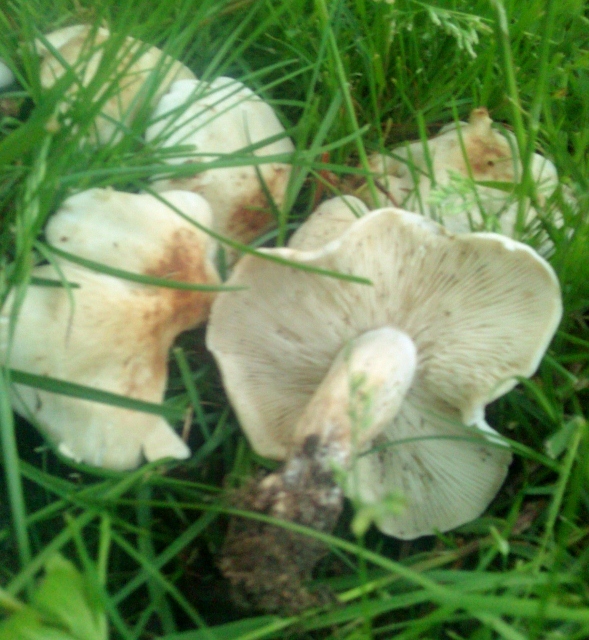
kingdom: Fungi
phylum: Basidiomycota
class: Agaricomycetes
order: Agaricales
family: Lyophyllaceae
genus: Calocybe
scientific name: Calocybe gambosa
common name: vårmusseron
